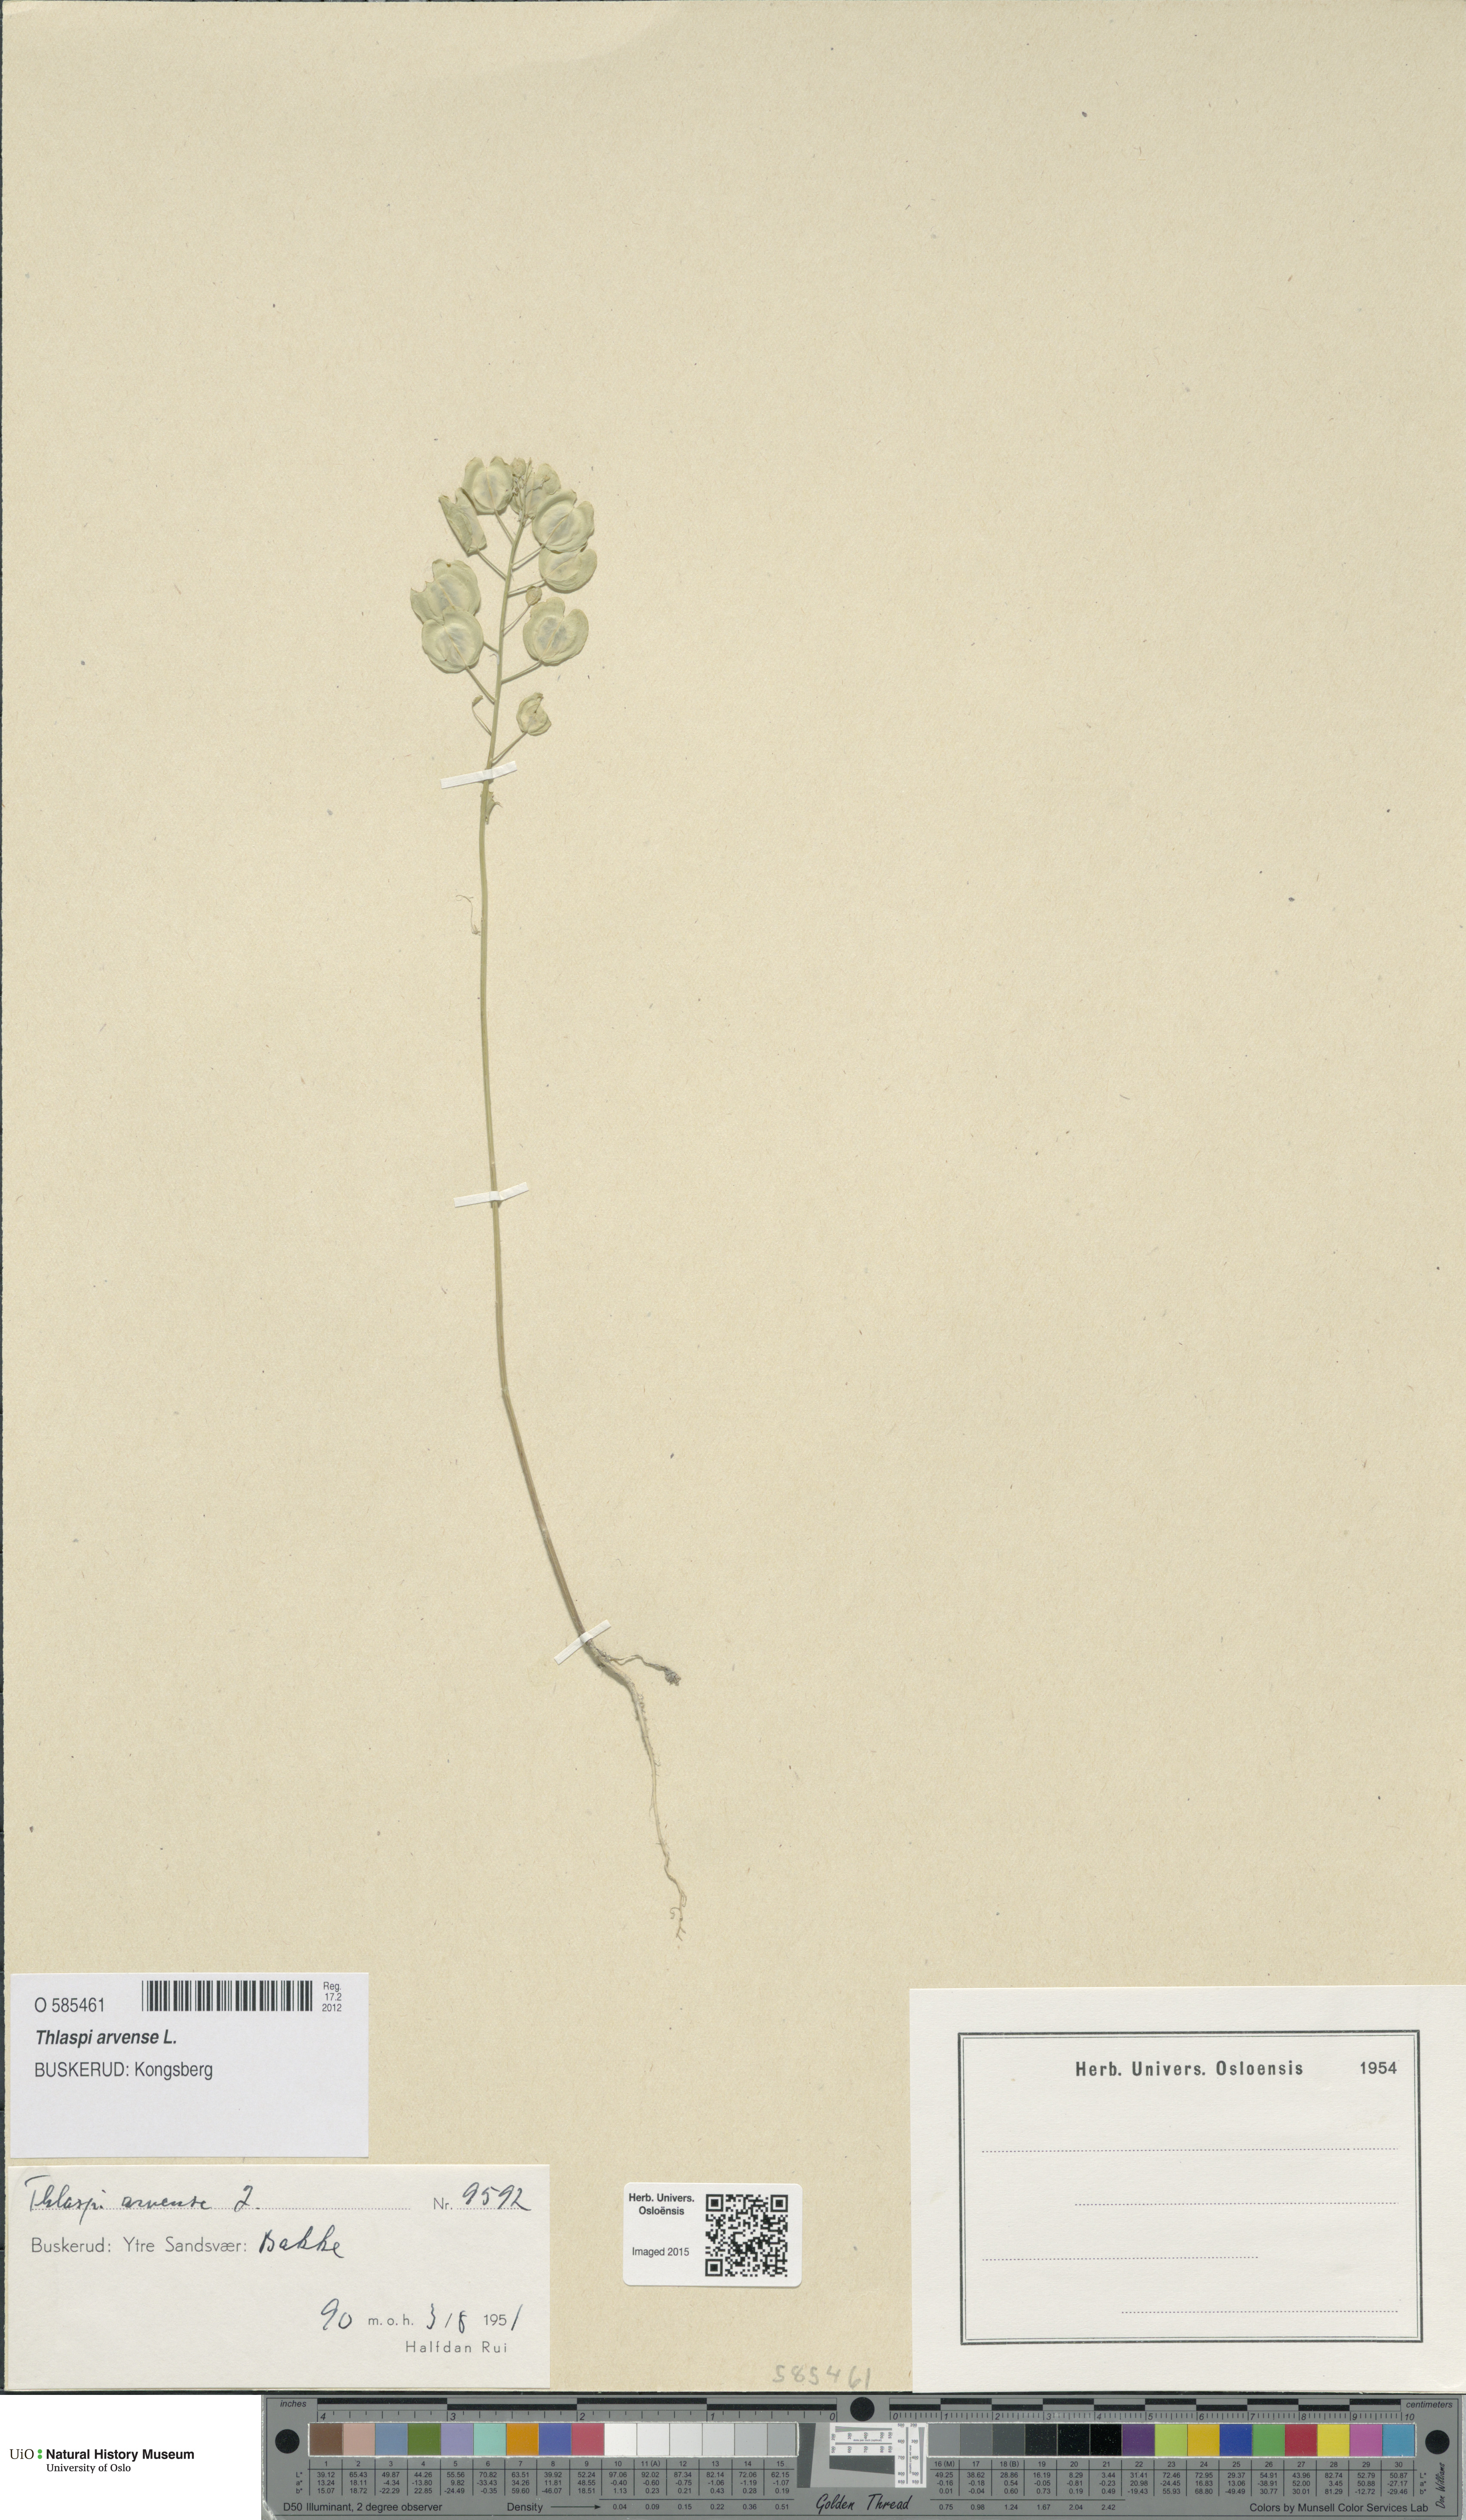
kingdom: Plantae
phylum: Tracheophyta
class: Magnoliopsida
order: Brassicales
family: Brassicaceae
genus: Thlaspi
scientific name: Thlaspi arvense
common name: Field pennycress
